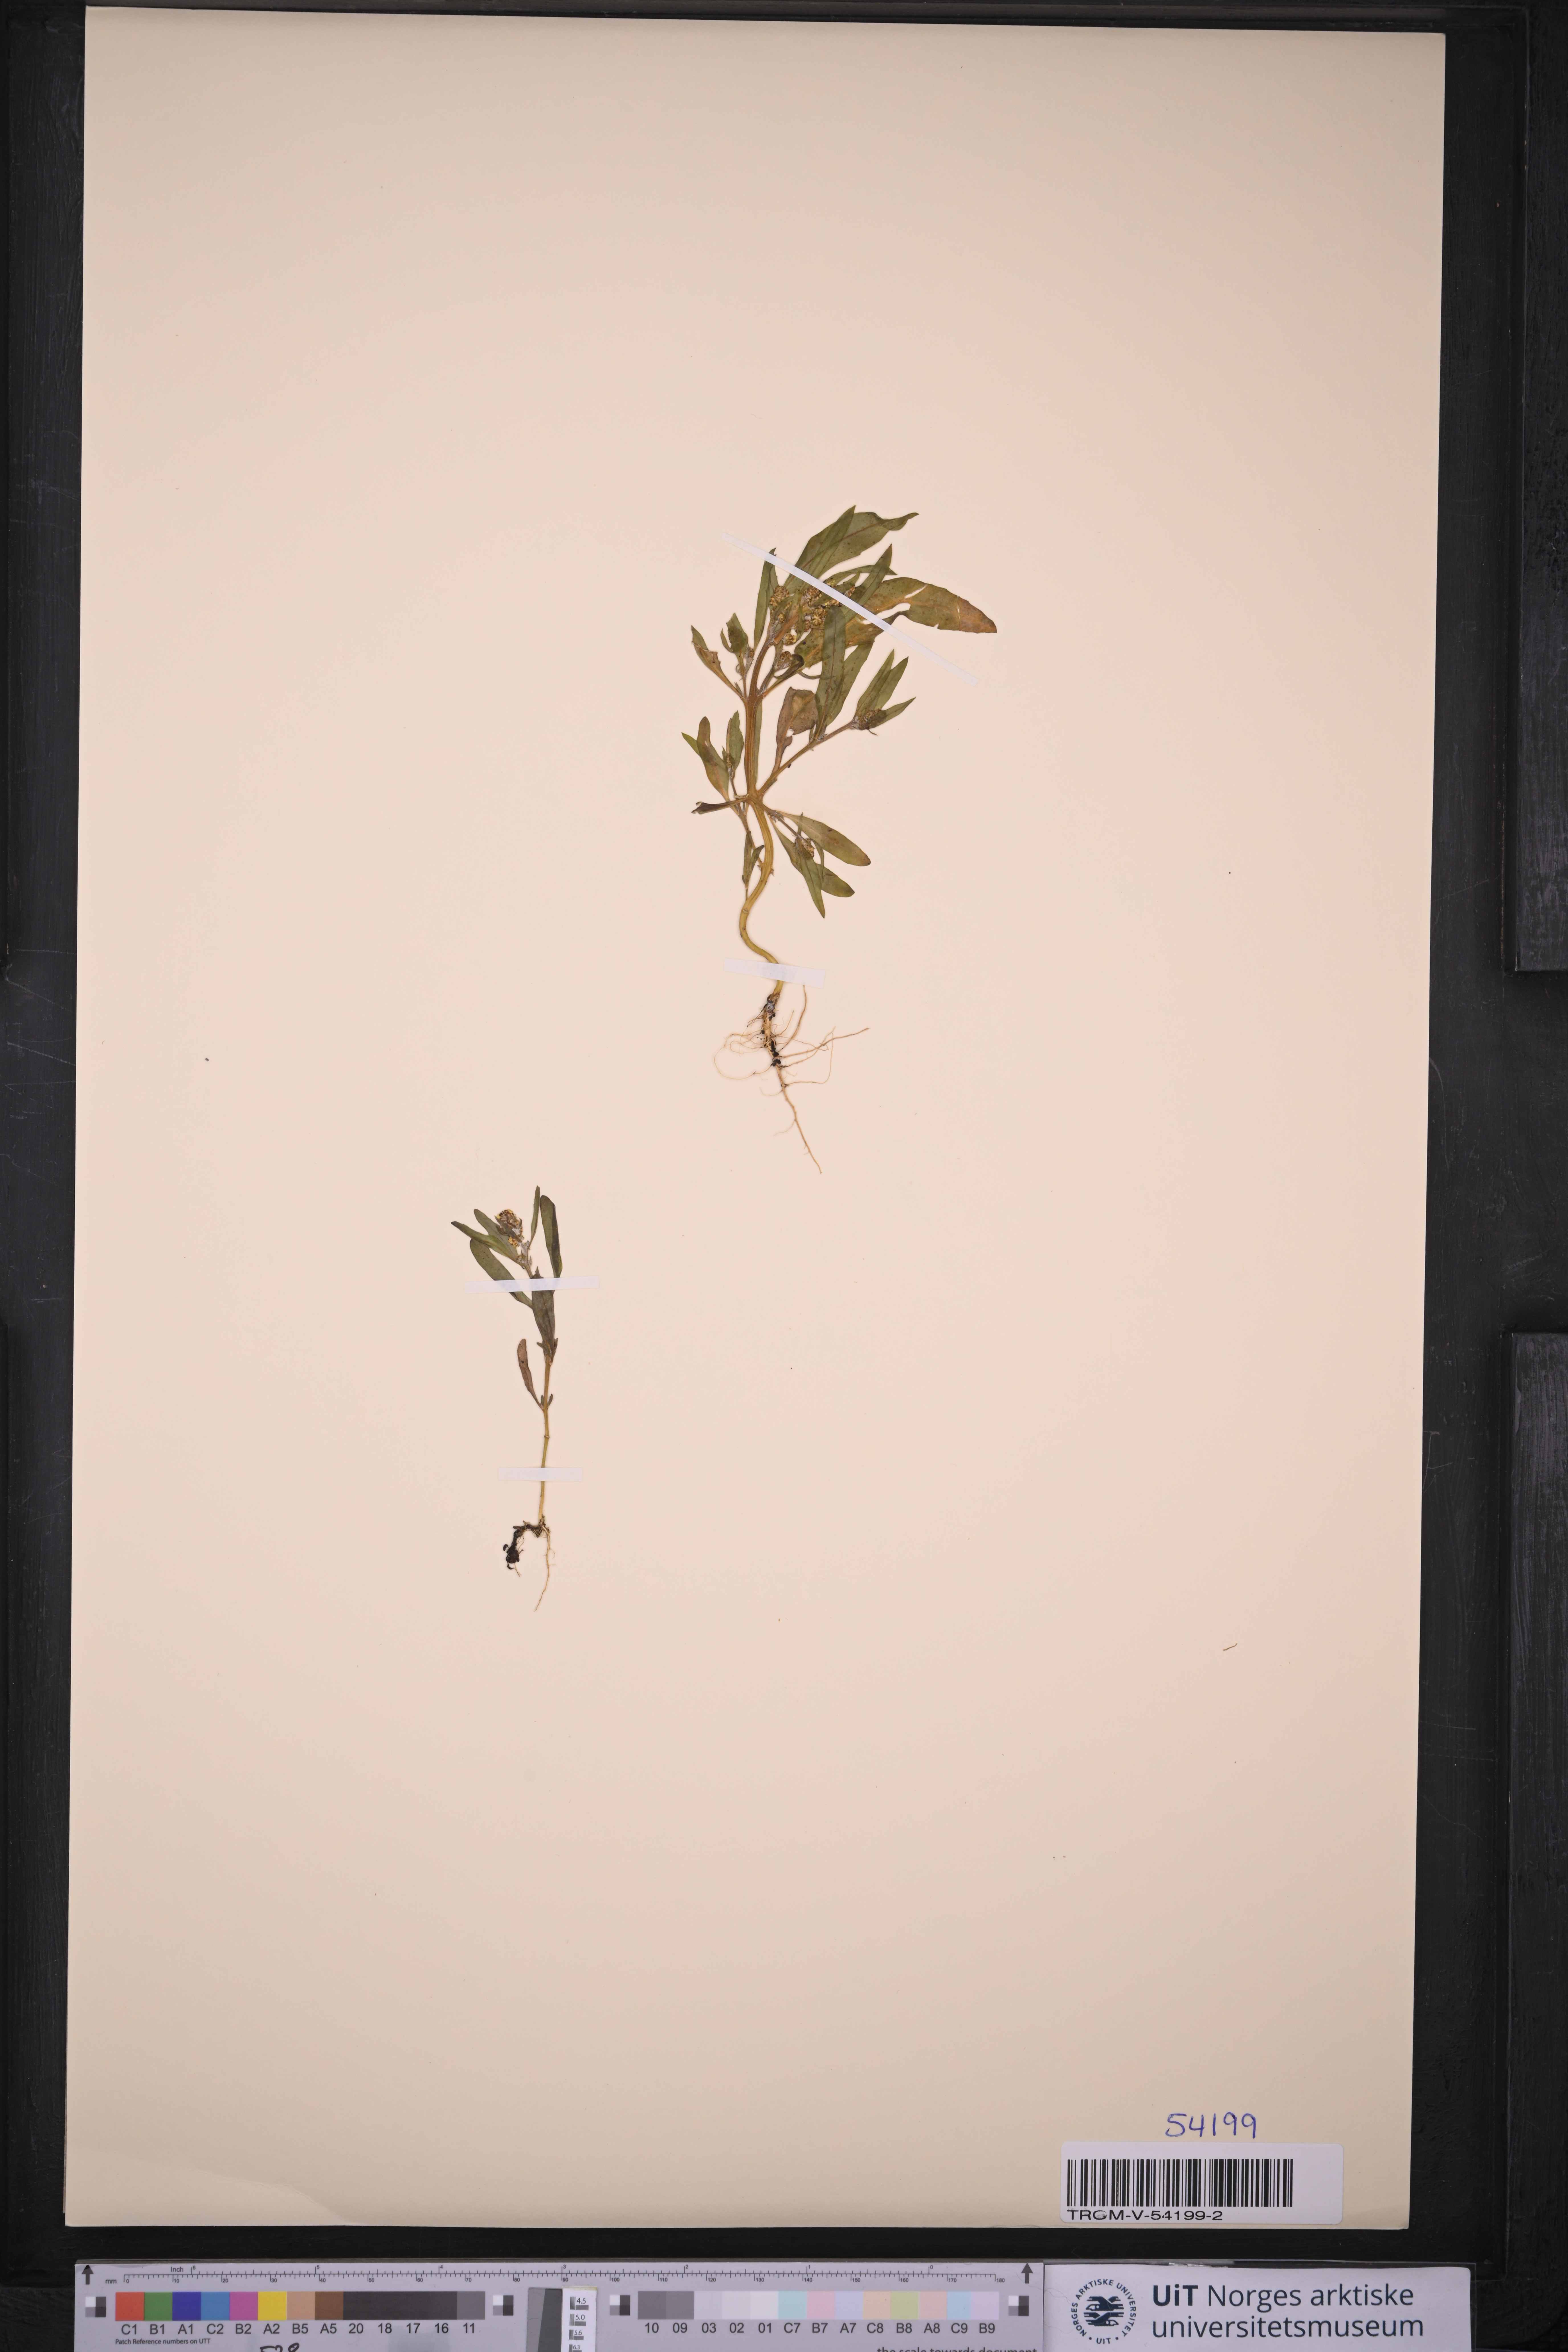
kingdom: Plantae
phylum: Tracheophyta
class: Magnoliopsida
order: Caryophyllales
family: Amaranthaceae
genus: Atriplex
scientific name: Atriplex littoralis
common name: Grass-leaved orache
